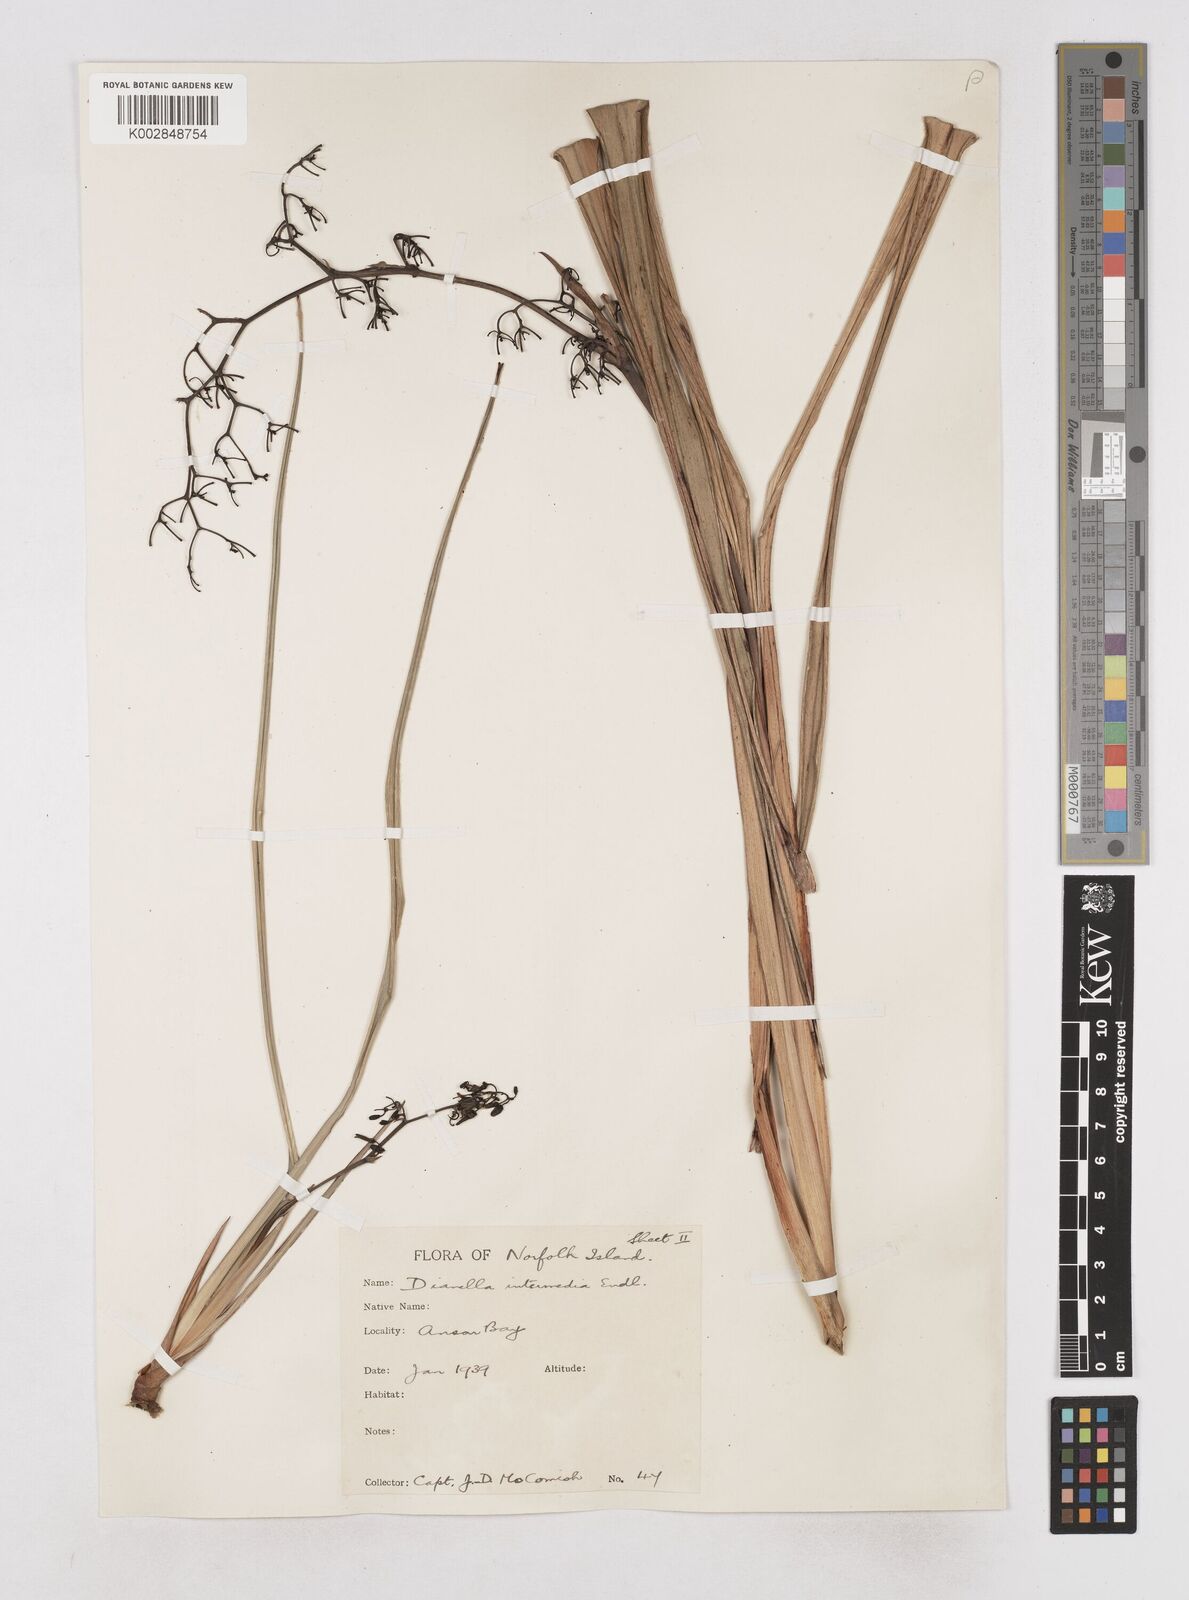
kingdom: Plantae
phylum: Tracheophyta
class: Liliopsida
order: Asparagales
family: Asphodelaceae
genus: Dianella
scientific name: Dianella intermedia
